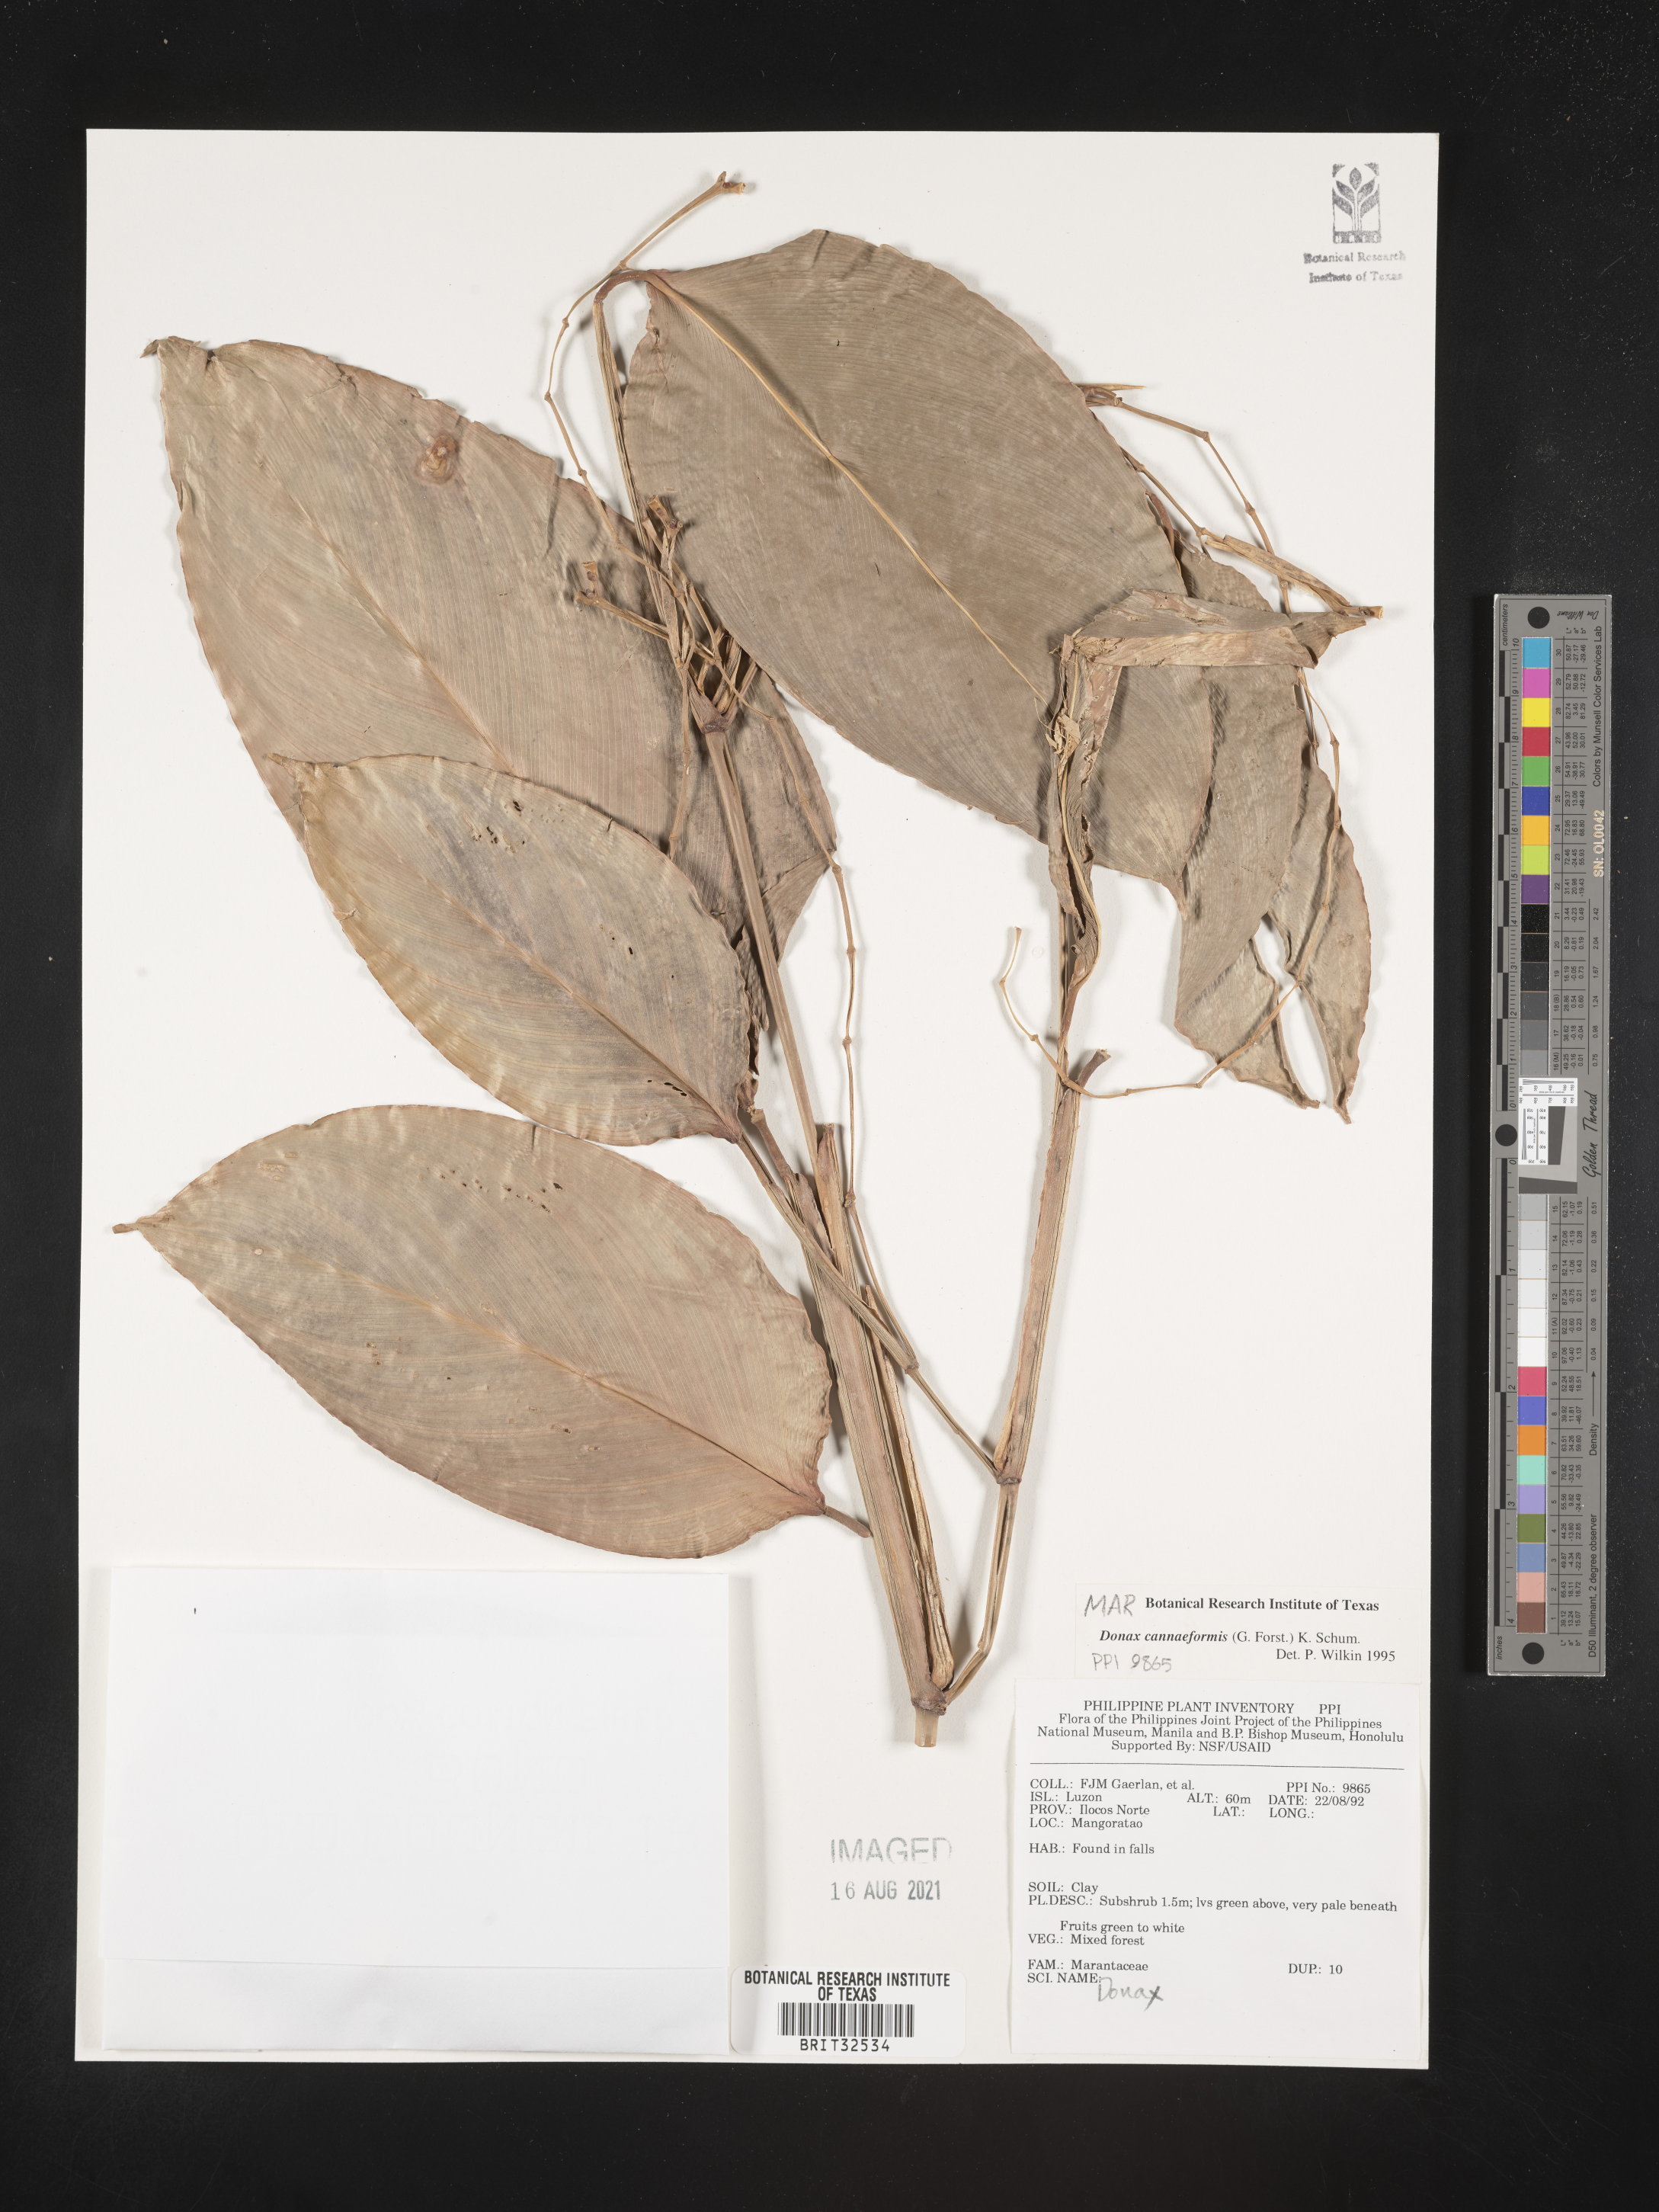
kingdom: Plantae
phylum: Tracheophyta
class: Liliopsida
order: Zingiberales
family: Marantaceae
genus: Donax
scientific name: Donax
